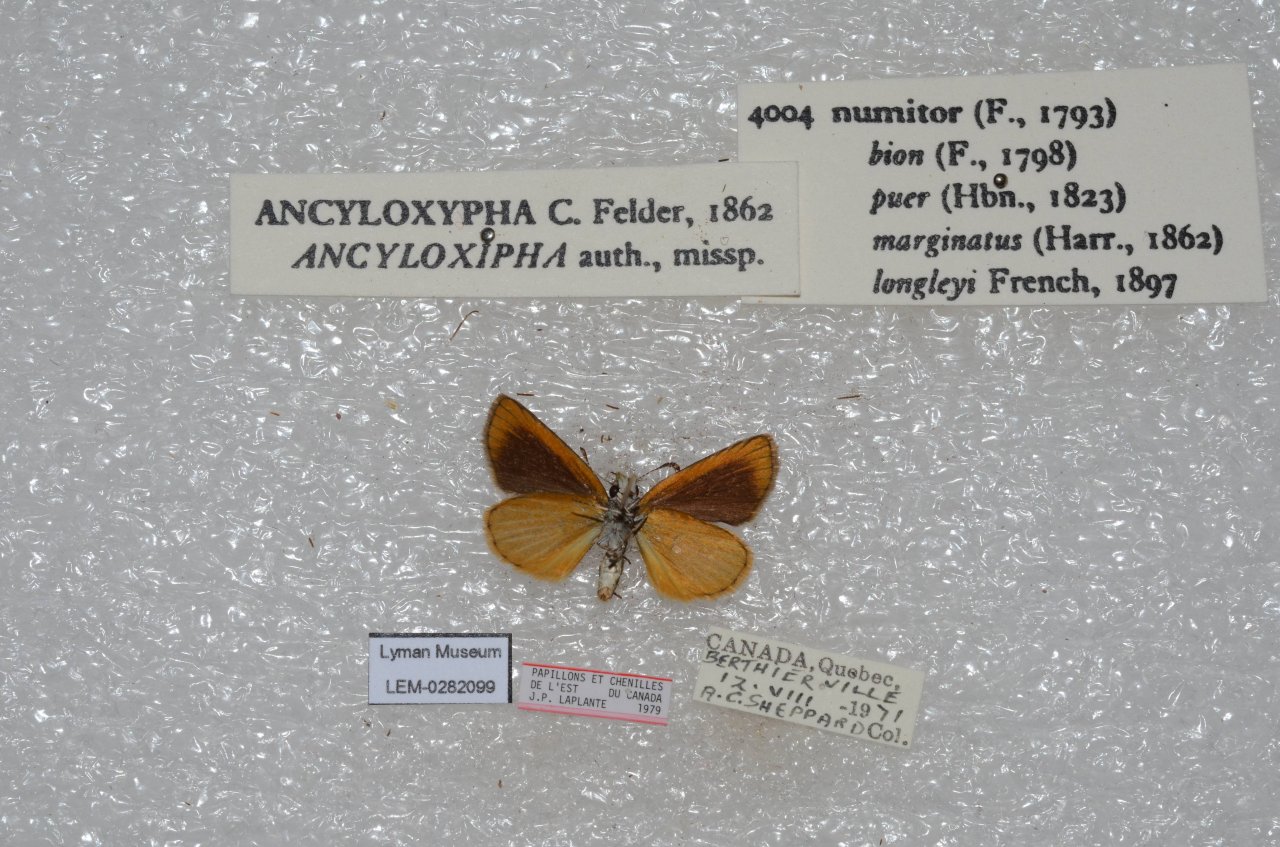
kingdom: Animalia
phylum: Arthropoda
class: Insecta
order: Lepidoptera
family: Hesperiidae
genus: Ancyloxypha
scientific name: Ancyloxypha numitor
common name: Least Skipper
